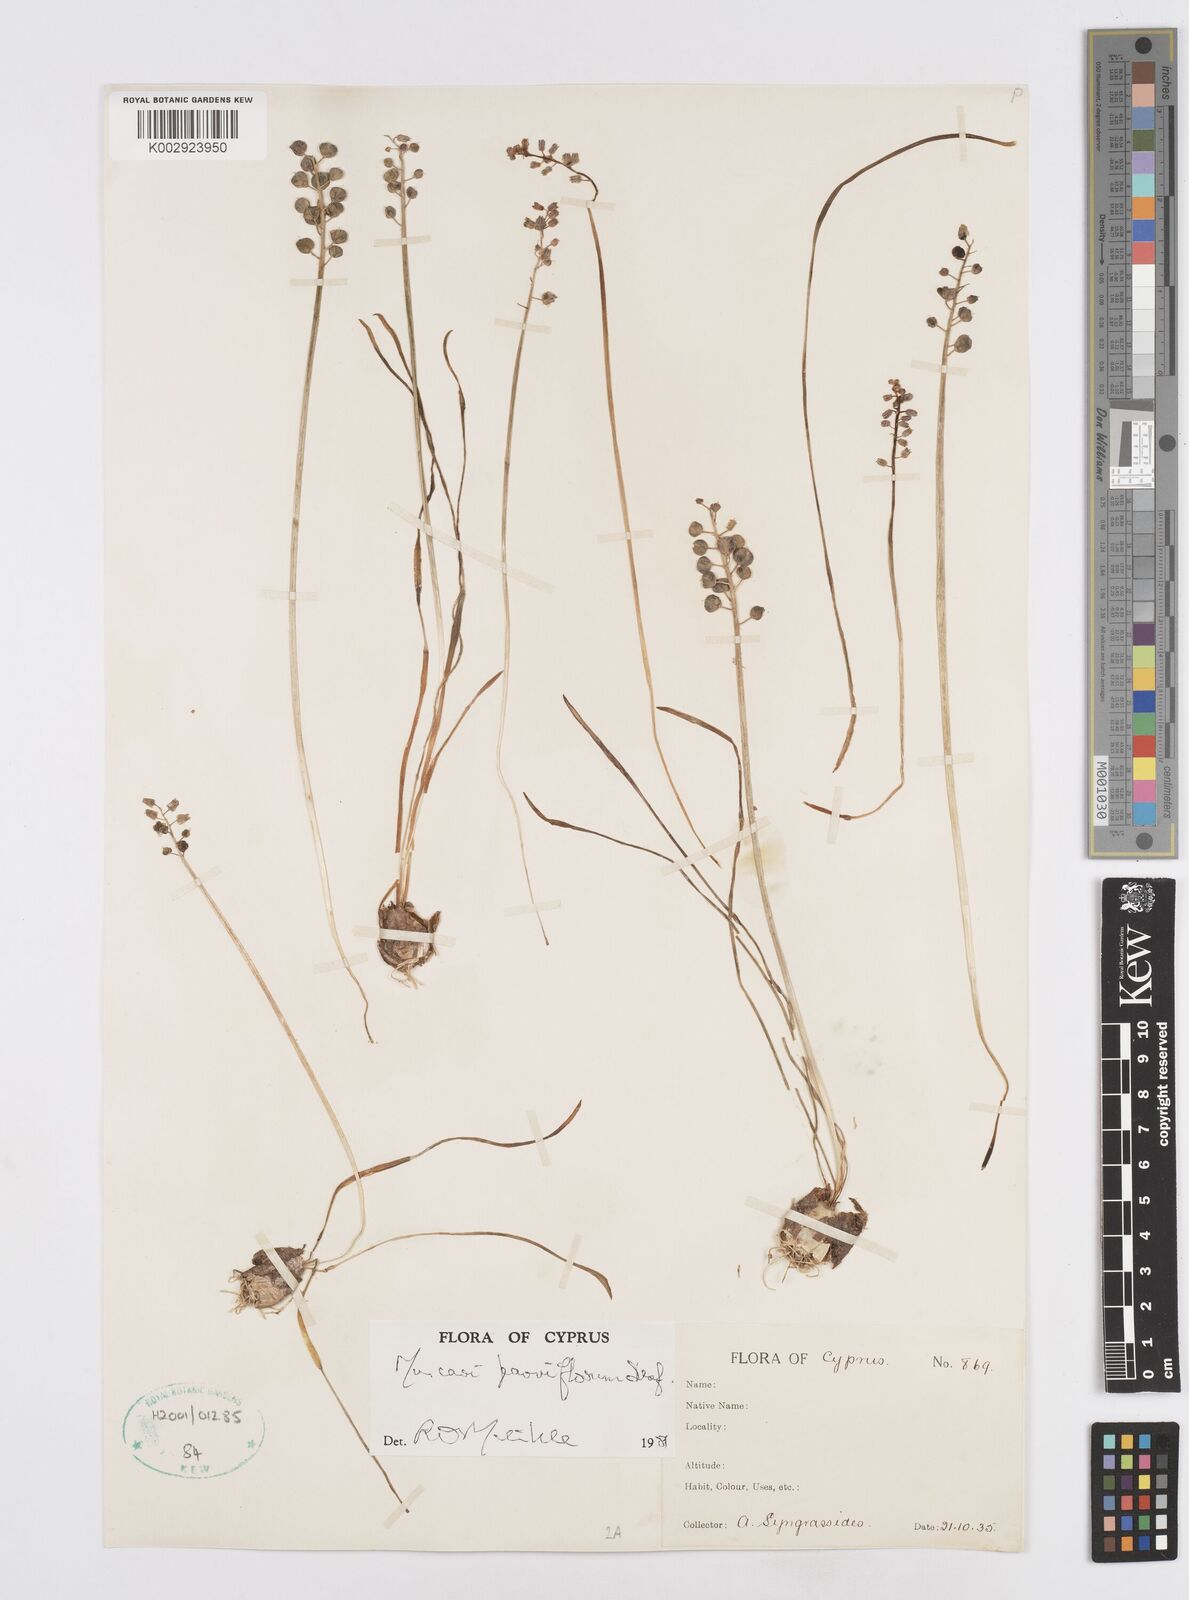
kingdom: Plantae
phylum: Tracheophyta
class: Liliopsida
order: Asparagales
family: Asparagaceae
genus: Muscari
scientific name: Muscari parviflorum
